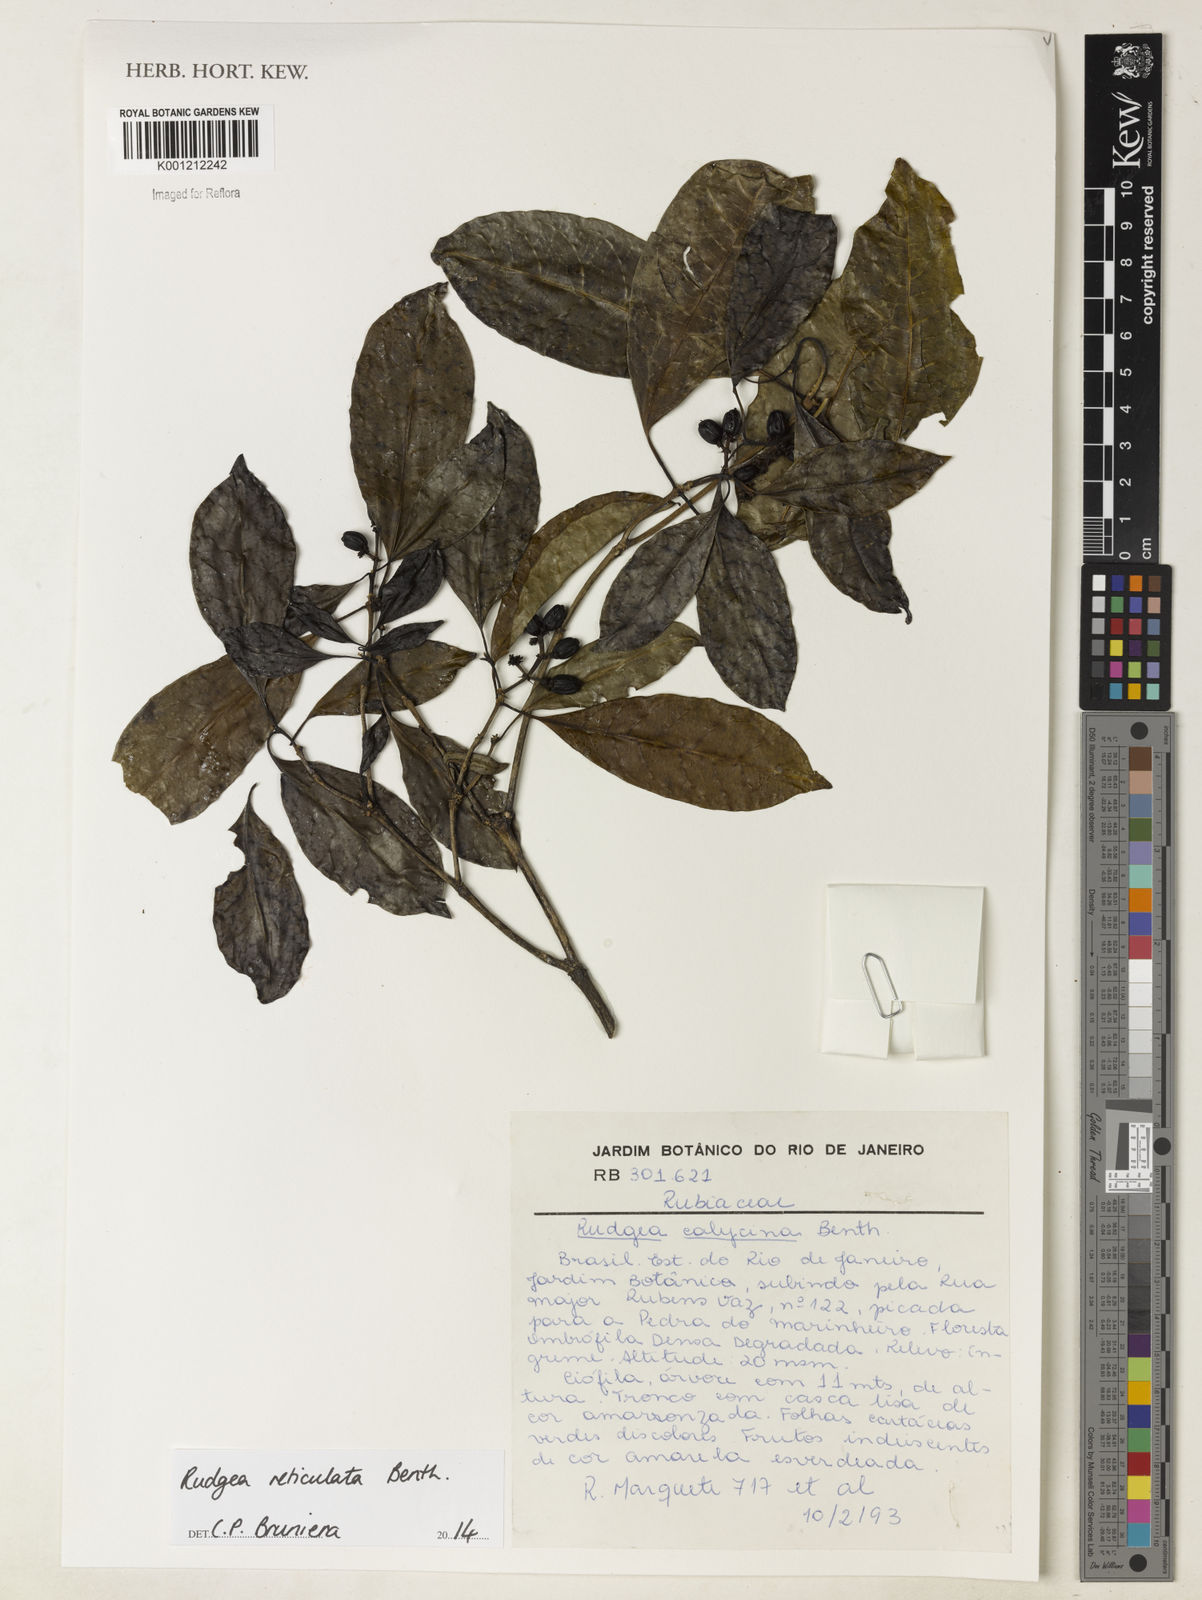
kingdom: Plantae
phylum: Tracheophyta
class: Magnoliopsida
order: Gentianales
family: Rubiaceae
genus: Rudgea
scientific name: Rudgea reticulata
